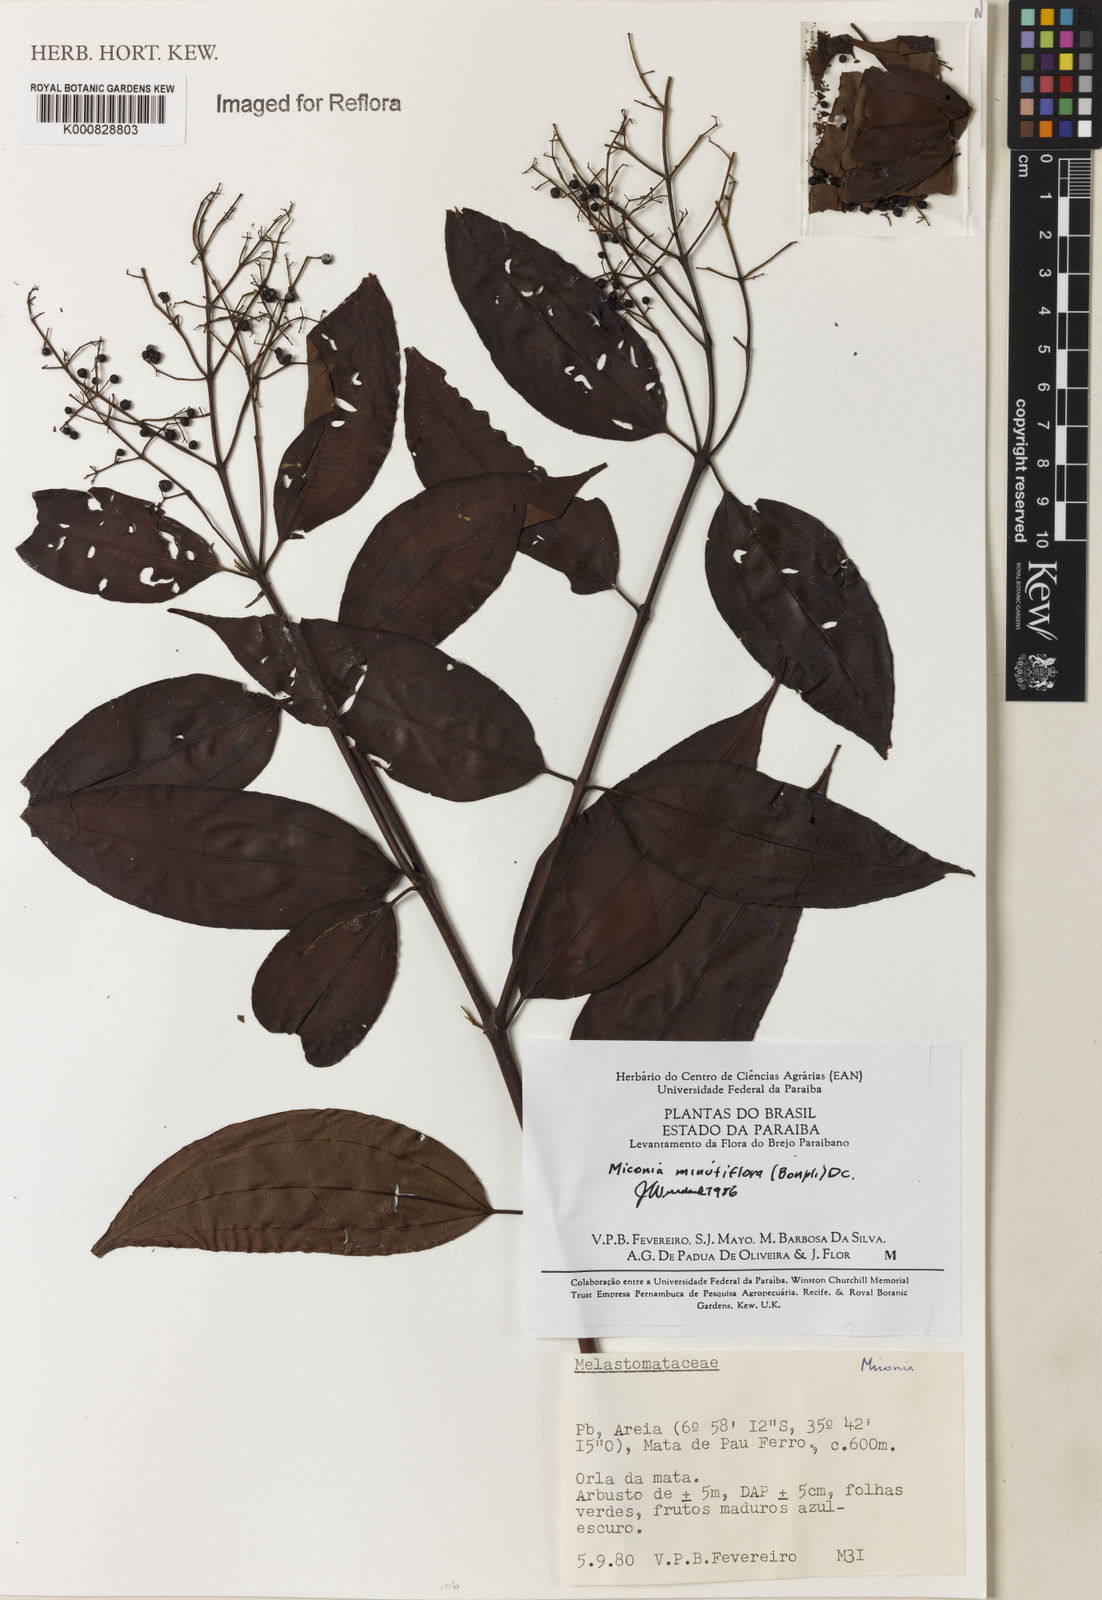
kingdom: Plantae
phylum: Tracheophyta
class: Magnoliopsida
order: Myrtales
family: Melastomataceae
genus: Miconia
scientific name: Miconia minutiflora
